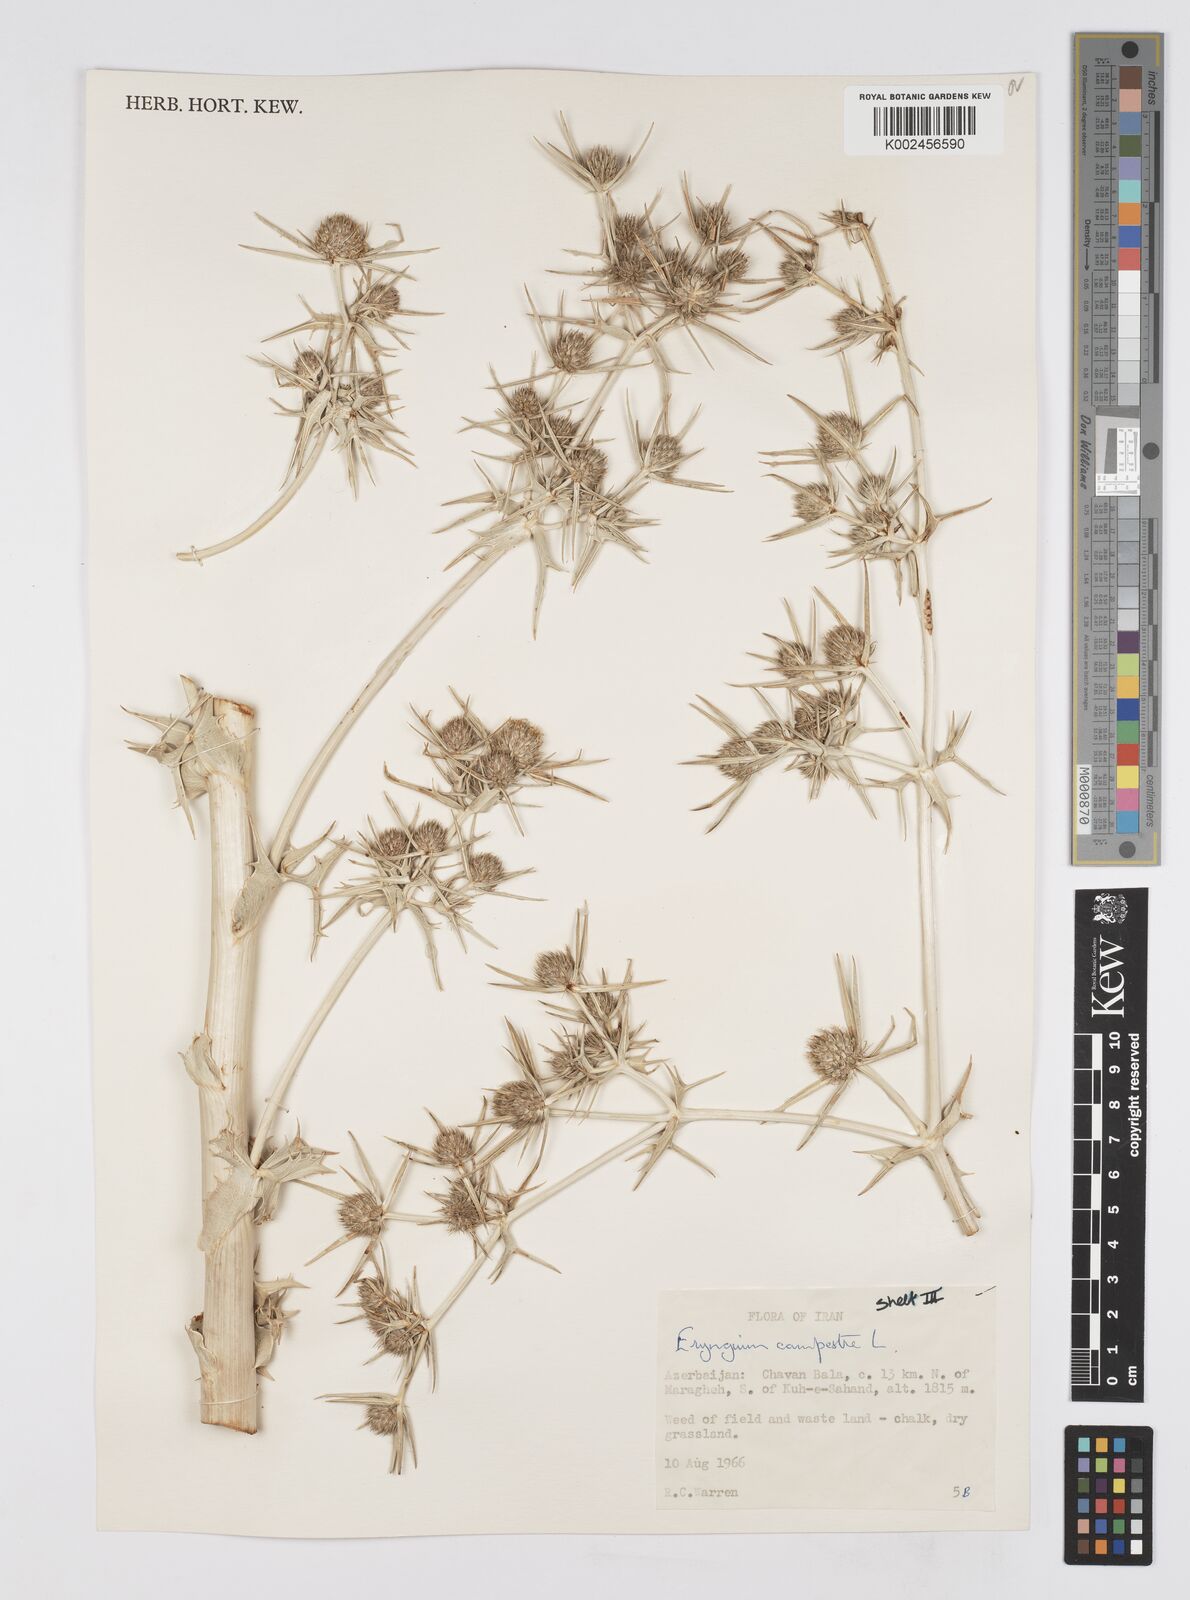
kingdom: Plantae
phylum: Tracheophyta
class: Magnoliopsida
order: Apiales
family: Apiaceae
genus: Eryngium
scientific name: Eryngium campestre
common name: Field eryngo
